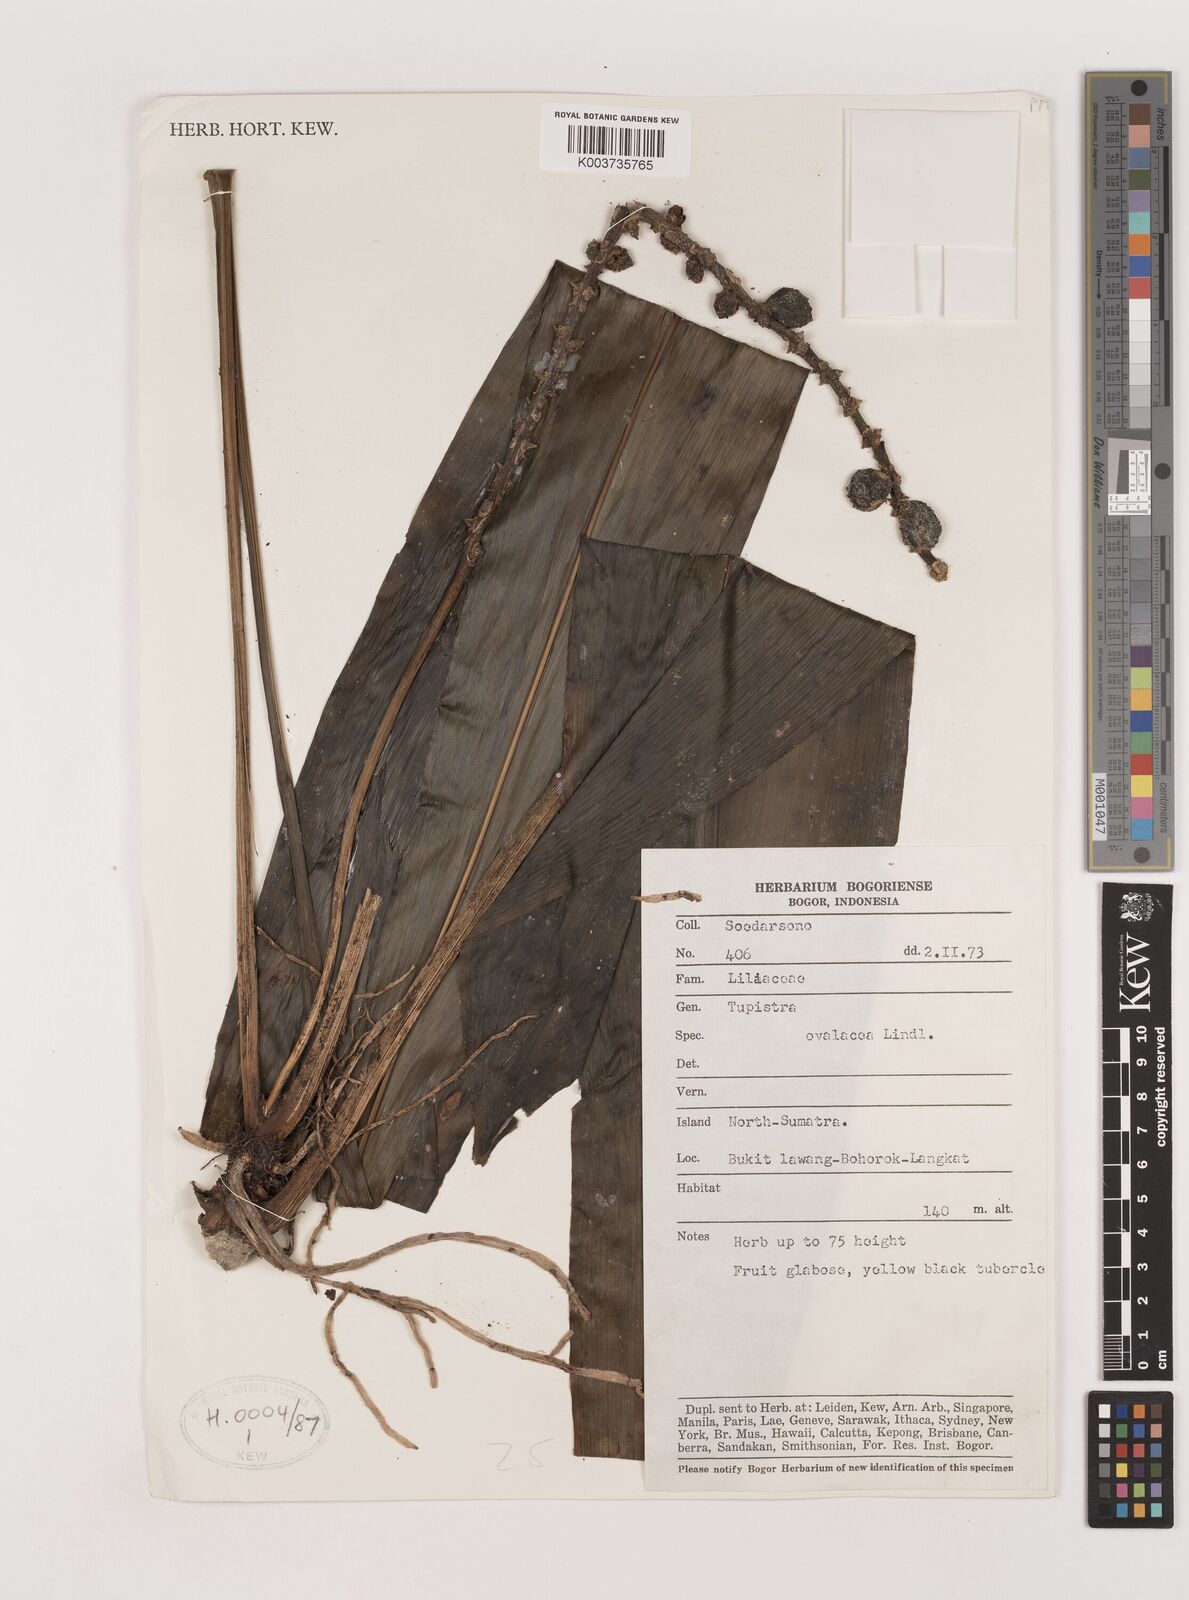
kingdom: Plantae
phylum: Tracheophyta
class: Liliopsida
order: Asparagales
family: Asparagaceae
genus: Tupistra
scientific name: Tupistra
